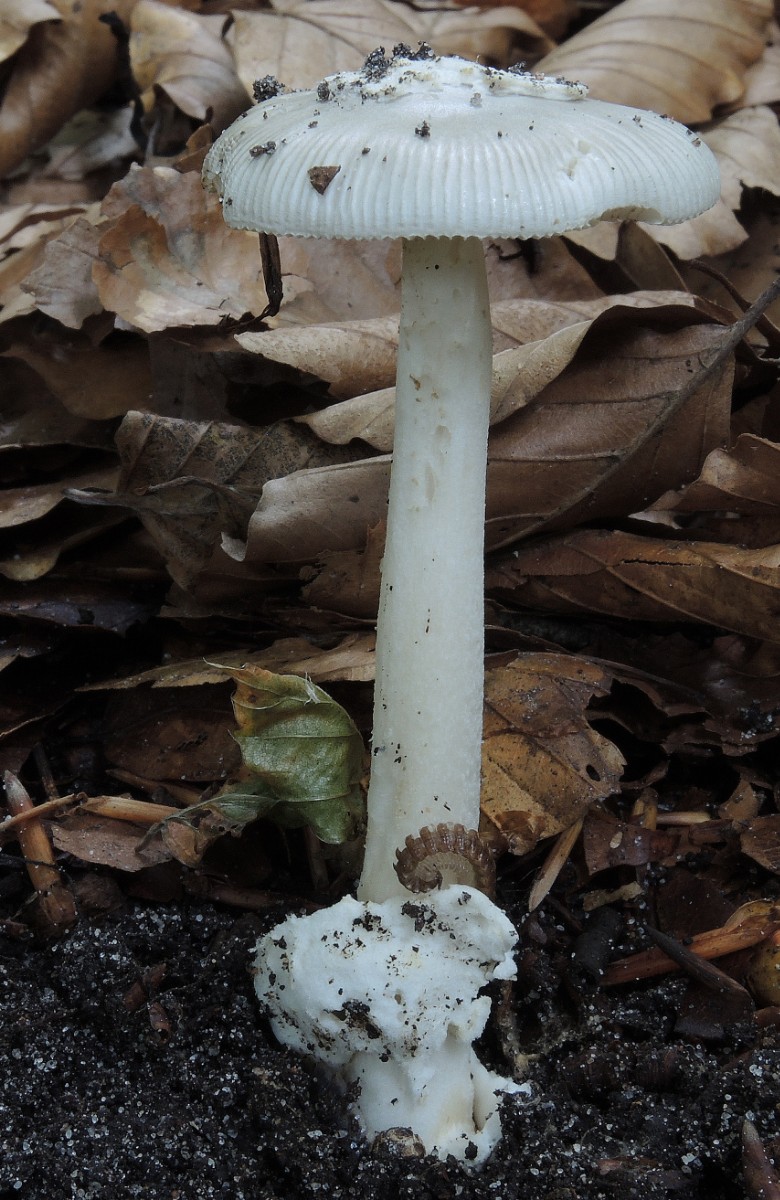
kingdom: Fungi
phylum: Basidiomycota
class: Agaricomycetes
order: Agaricales
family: Amanitaceae
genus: Amanita
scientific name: Amanita vaginata
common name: grå kam-fluesvamp
